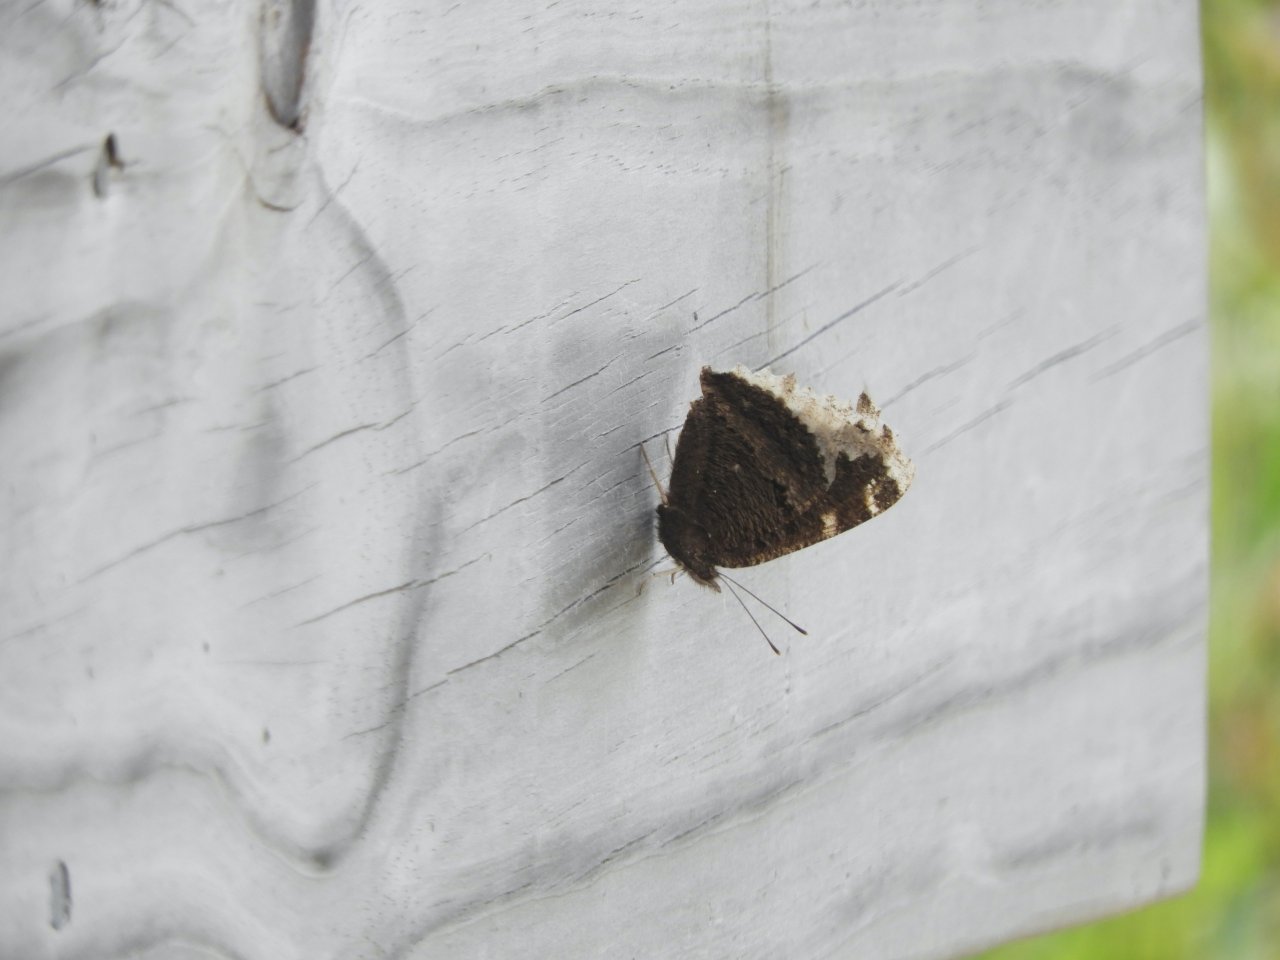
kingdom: Animalia
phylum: Arthropoda
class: Insecta
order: Lepidoptera
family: Nymphalidae
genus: Nymphalis
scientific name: Nymphalis antiopa
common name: Mourning Cloak
